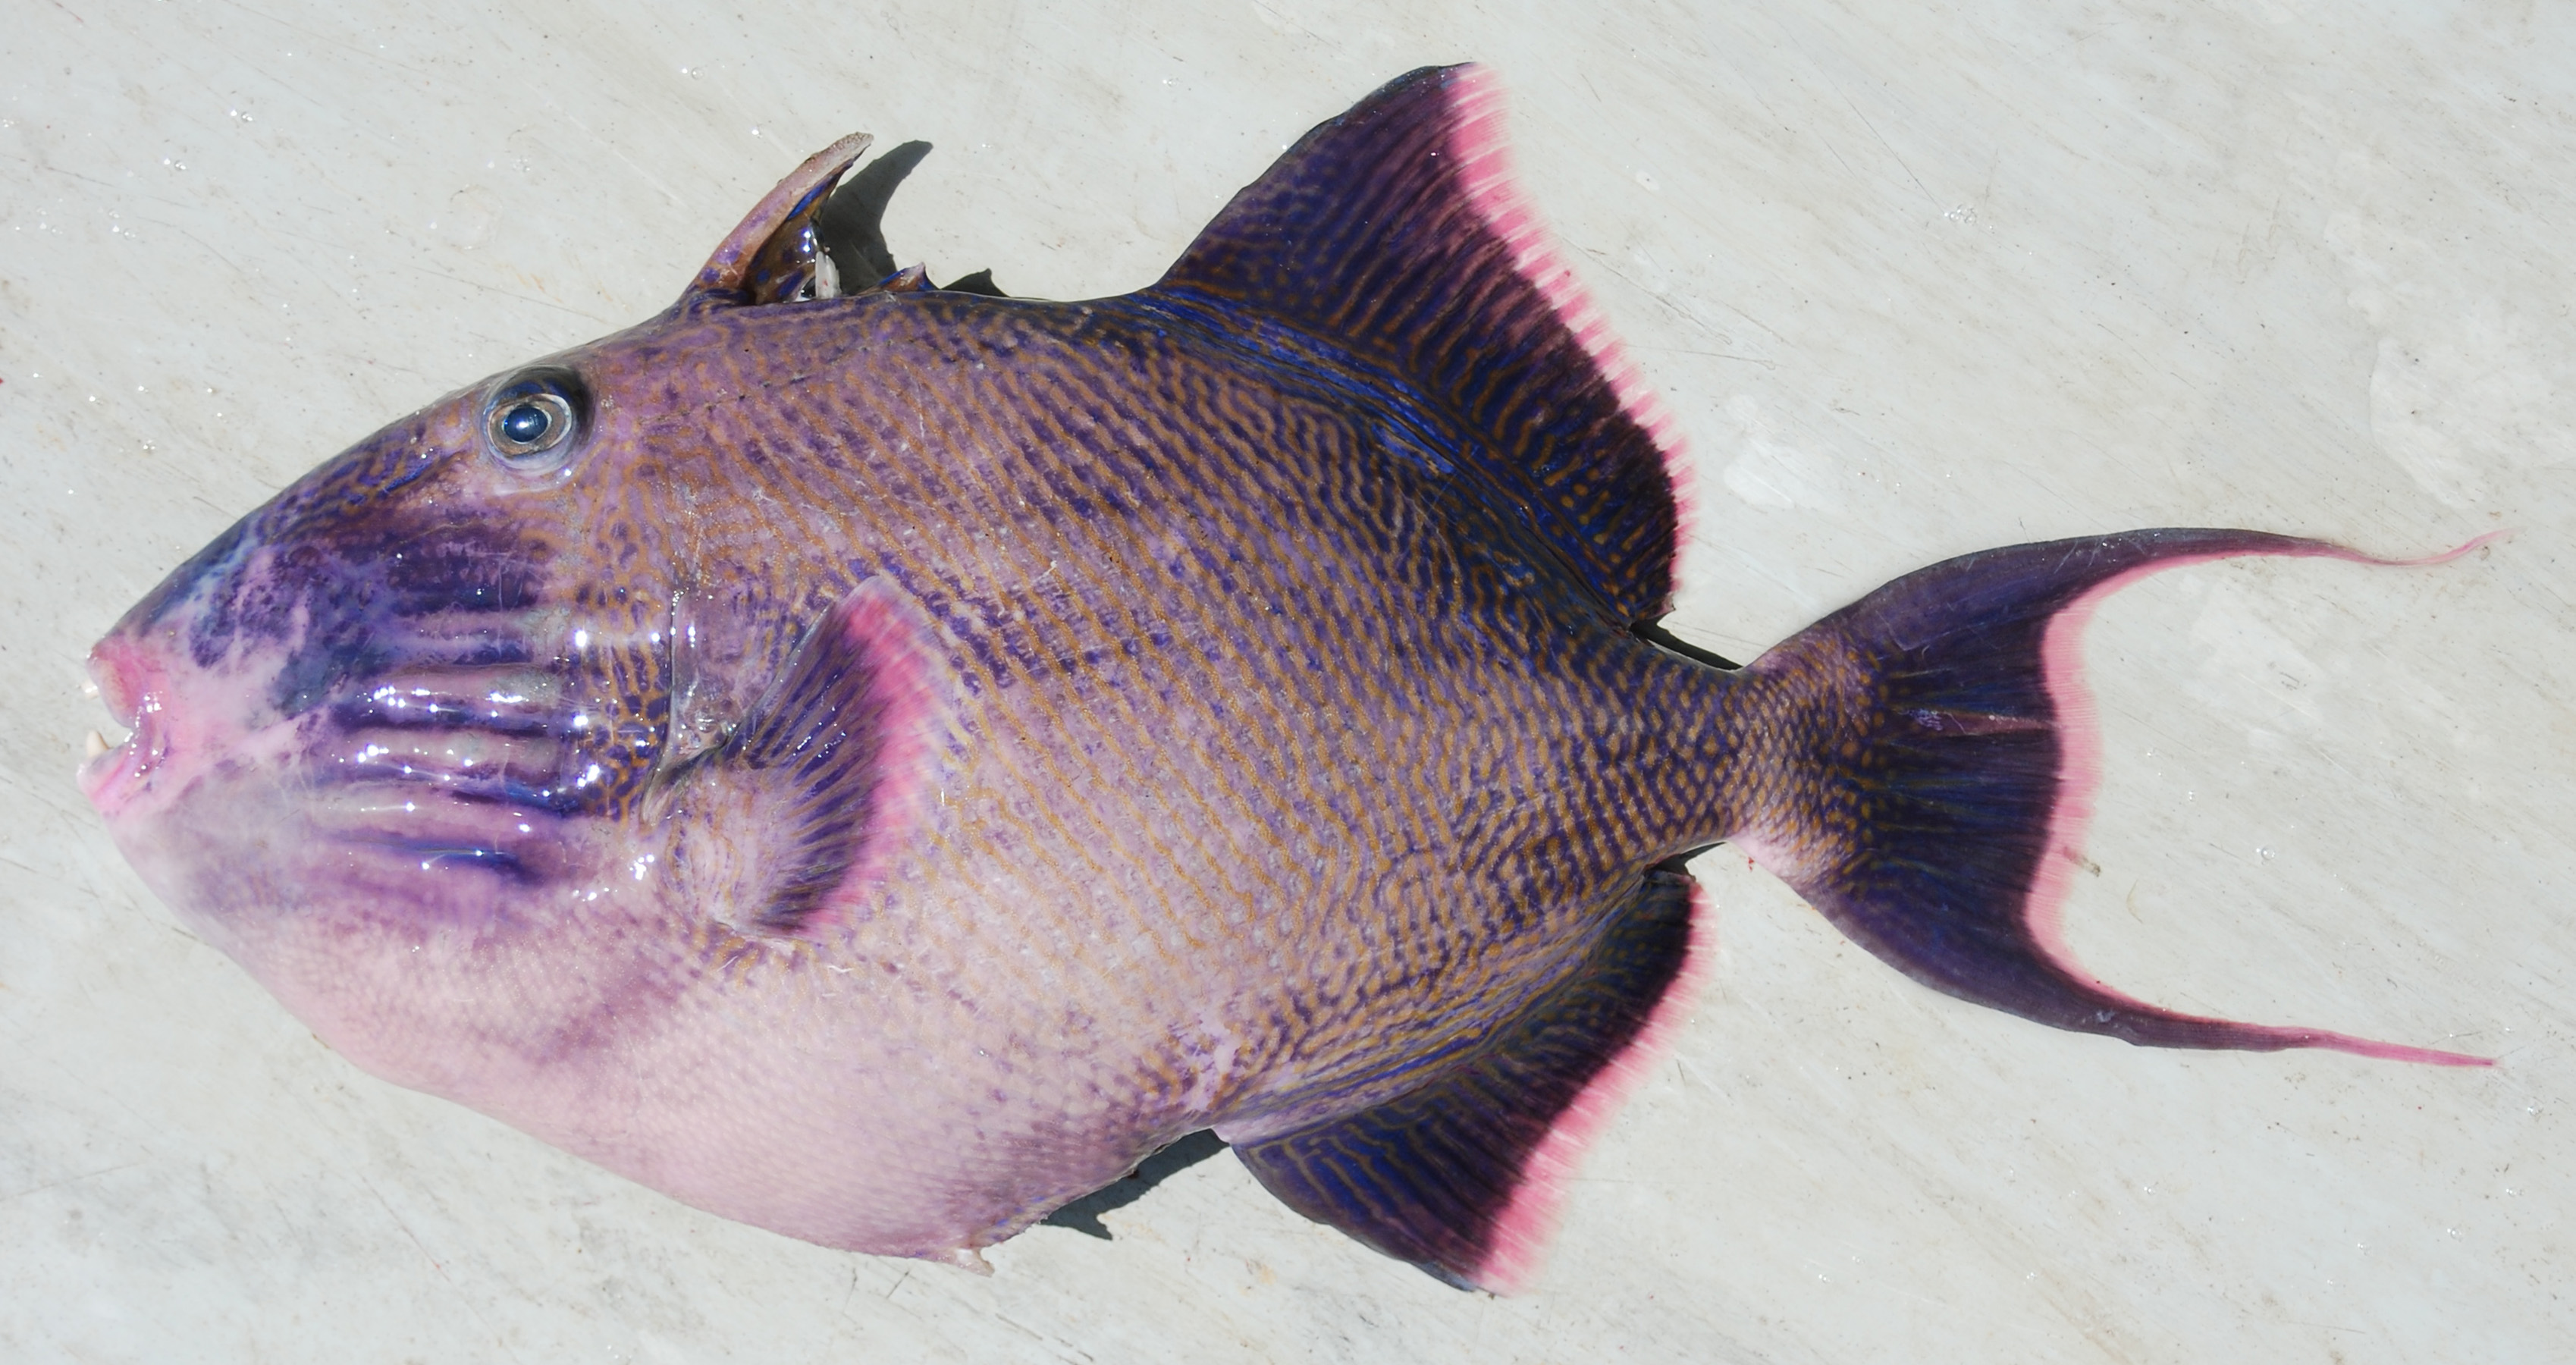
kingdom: Animalia
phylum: Chordata
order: Tetraodontiformes
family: Balistidae
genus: Pseudobalistes
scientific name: Pseudobalistes fuscus
